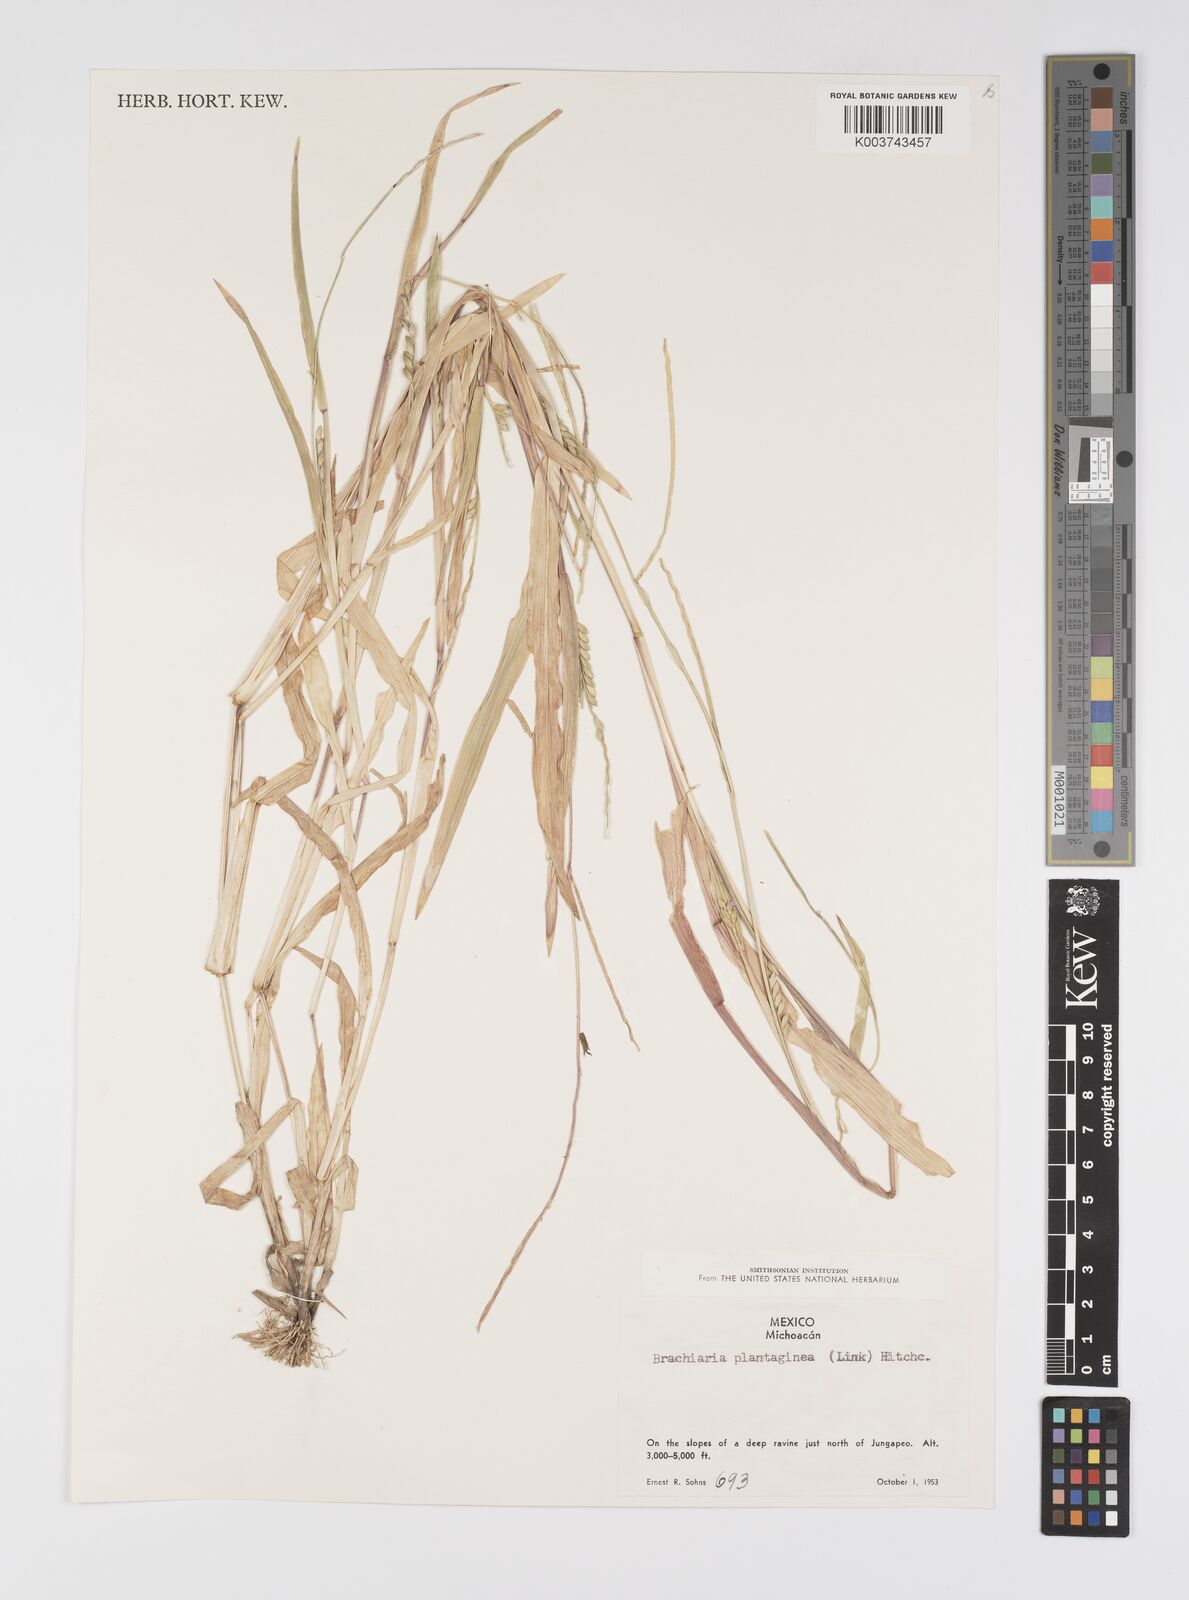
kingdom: Plantae
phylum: Tracheophyta
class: Liliopsida
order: Poales
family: Poaceae
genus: Urochloa
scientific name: Urochloa plantaginea
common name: Plantain signalgrass
